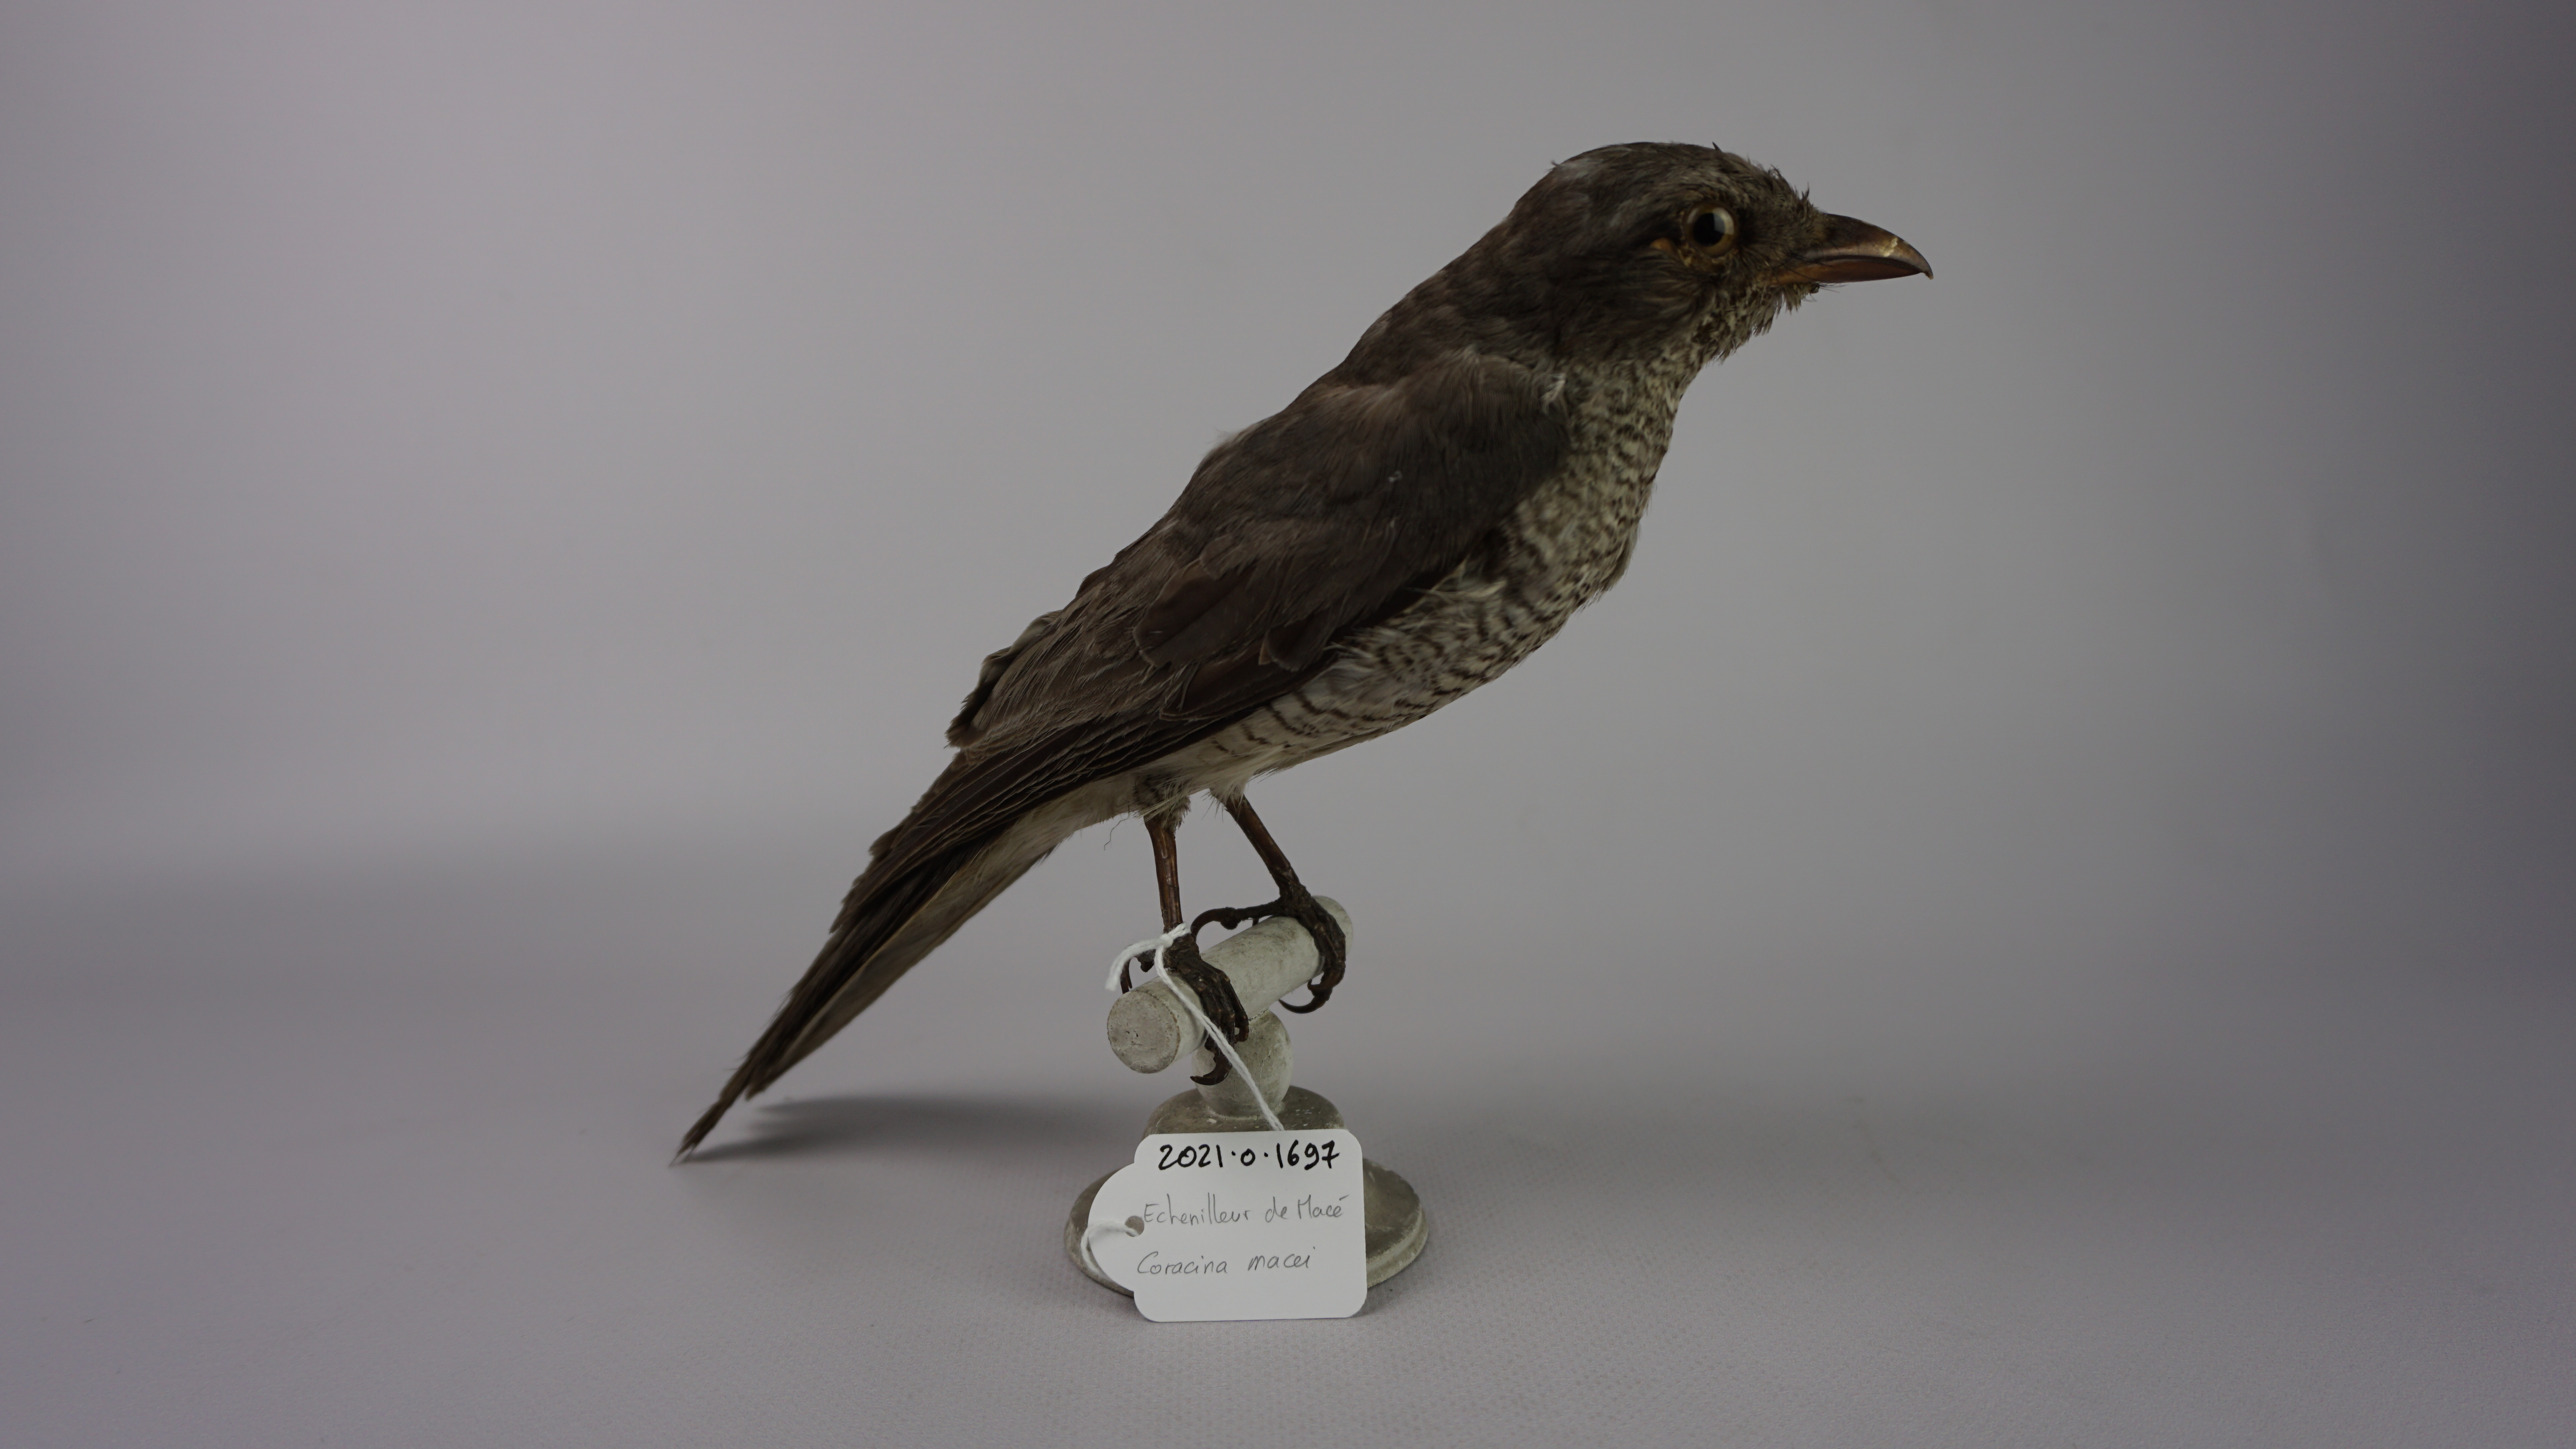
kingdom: Animalia
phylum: Chordata
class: Aves
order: Passeriformes
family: Campephagidae
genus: Coracina
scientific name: Coracina macei
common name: Large cuckooshrike
